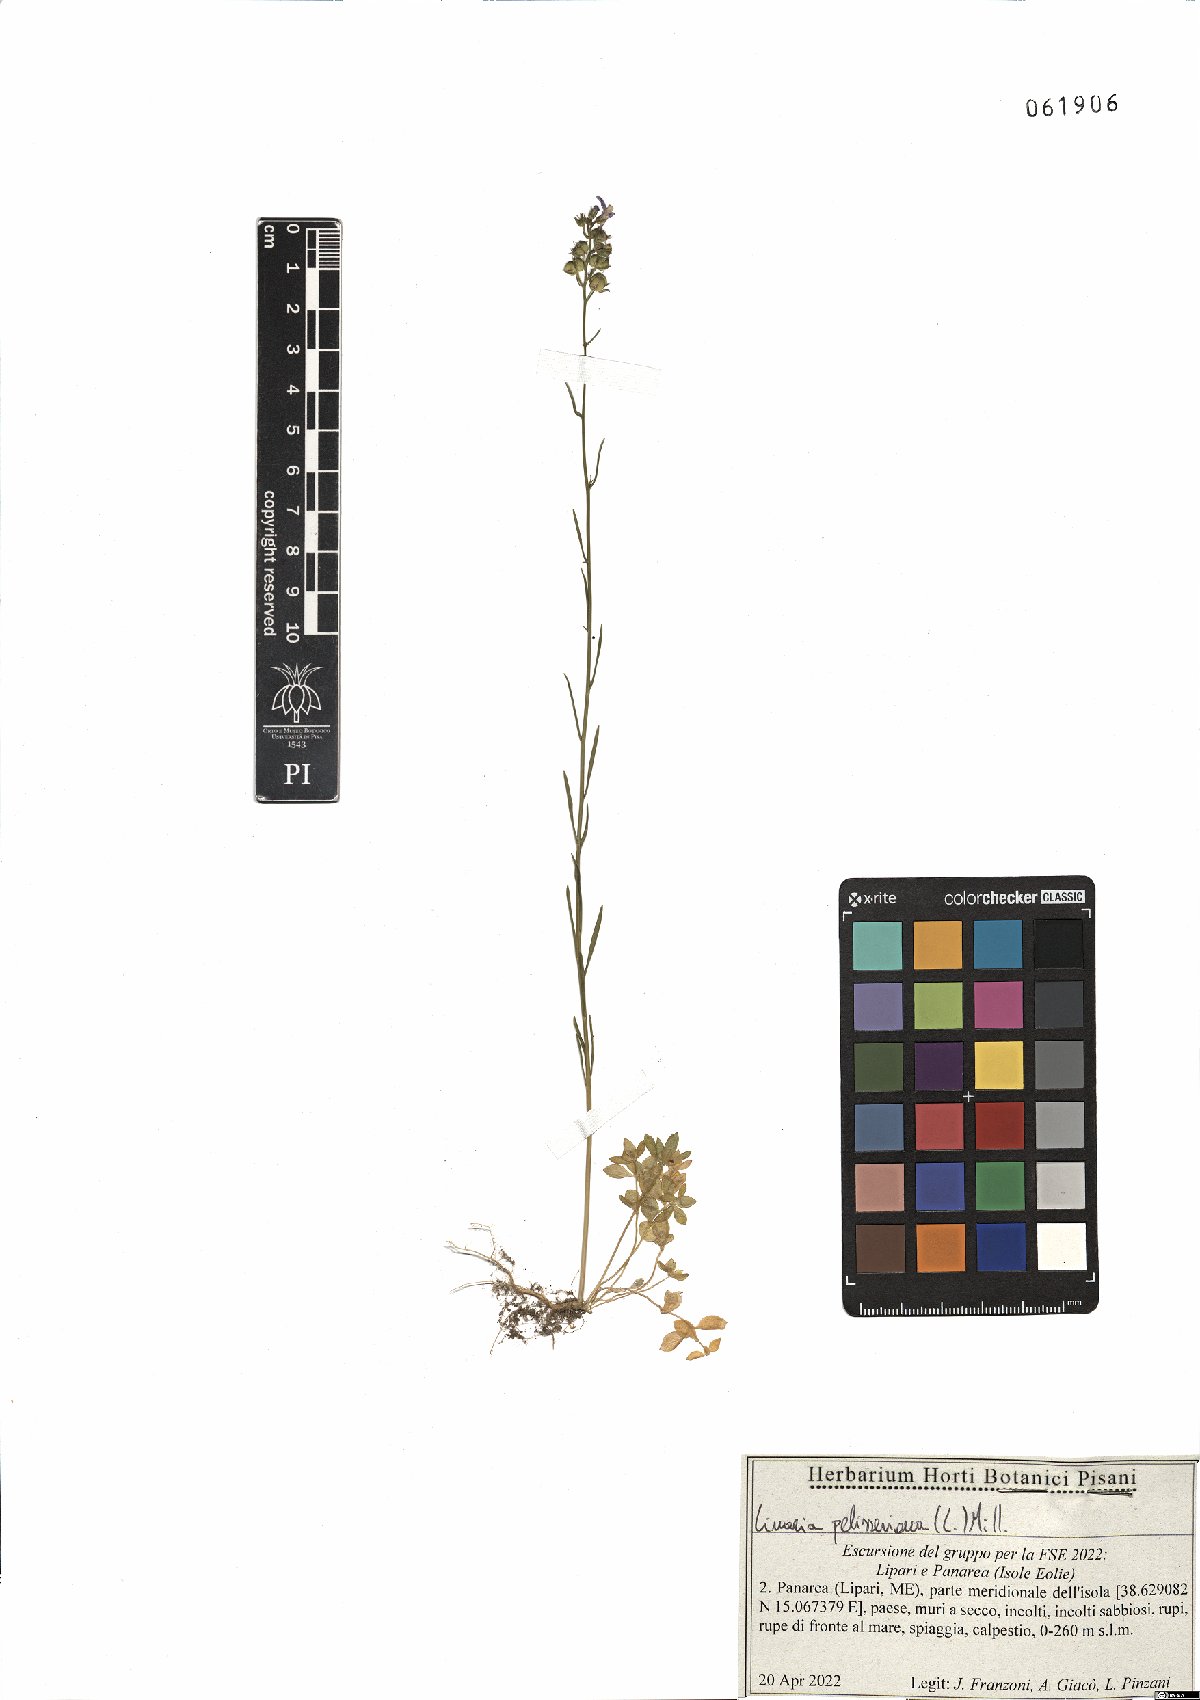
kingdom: Plantae
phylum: Tracheophyta
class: Magnoliopsida
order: Lamiales
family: Plantaginaceae
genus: Linaria
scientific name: Linaria pelisseriana
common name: Jersey toadflax
